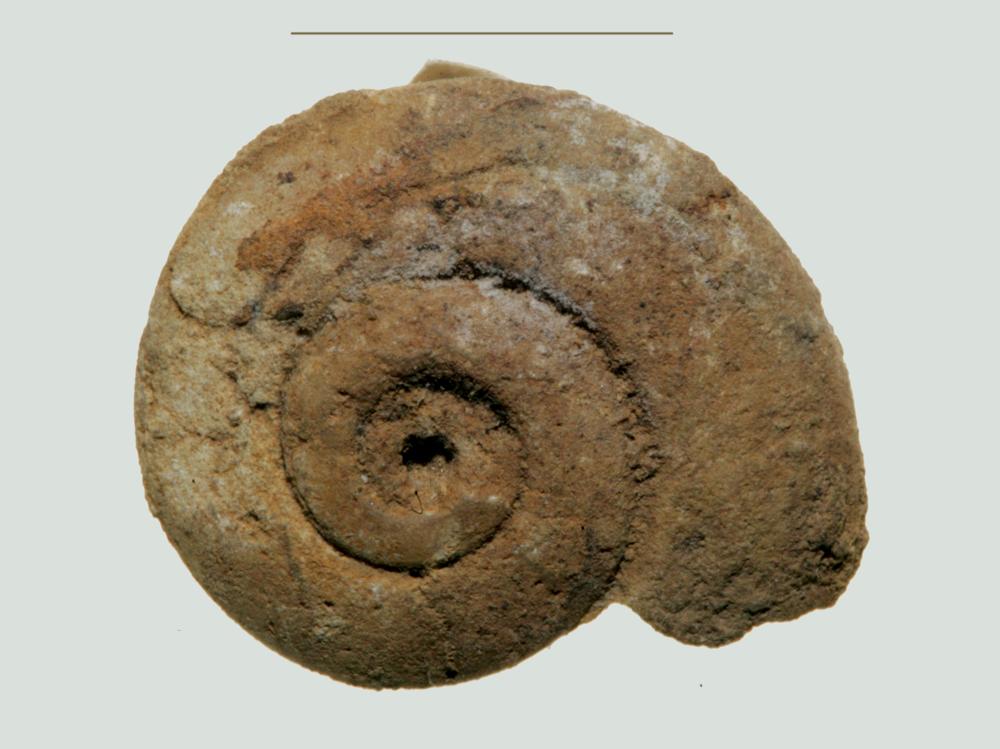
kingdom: Animalia
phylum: Mollusca
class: Gastropoda
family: Bellerophontidae
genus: Cymbularia
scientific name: Cymbularia lenticularis
